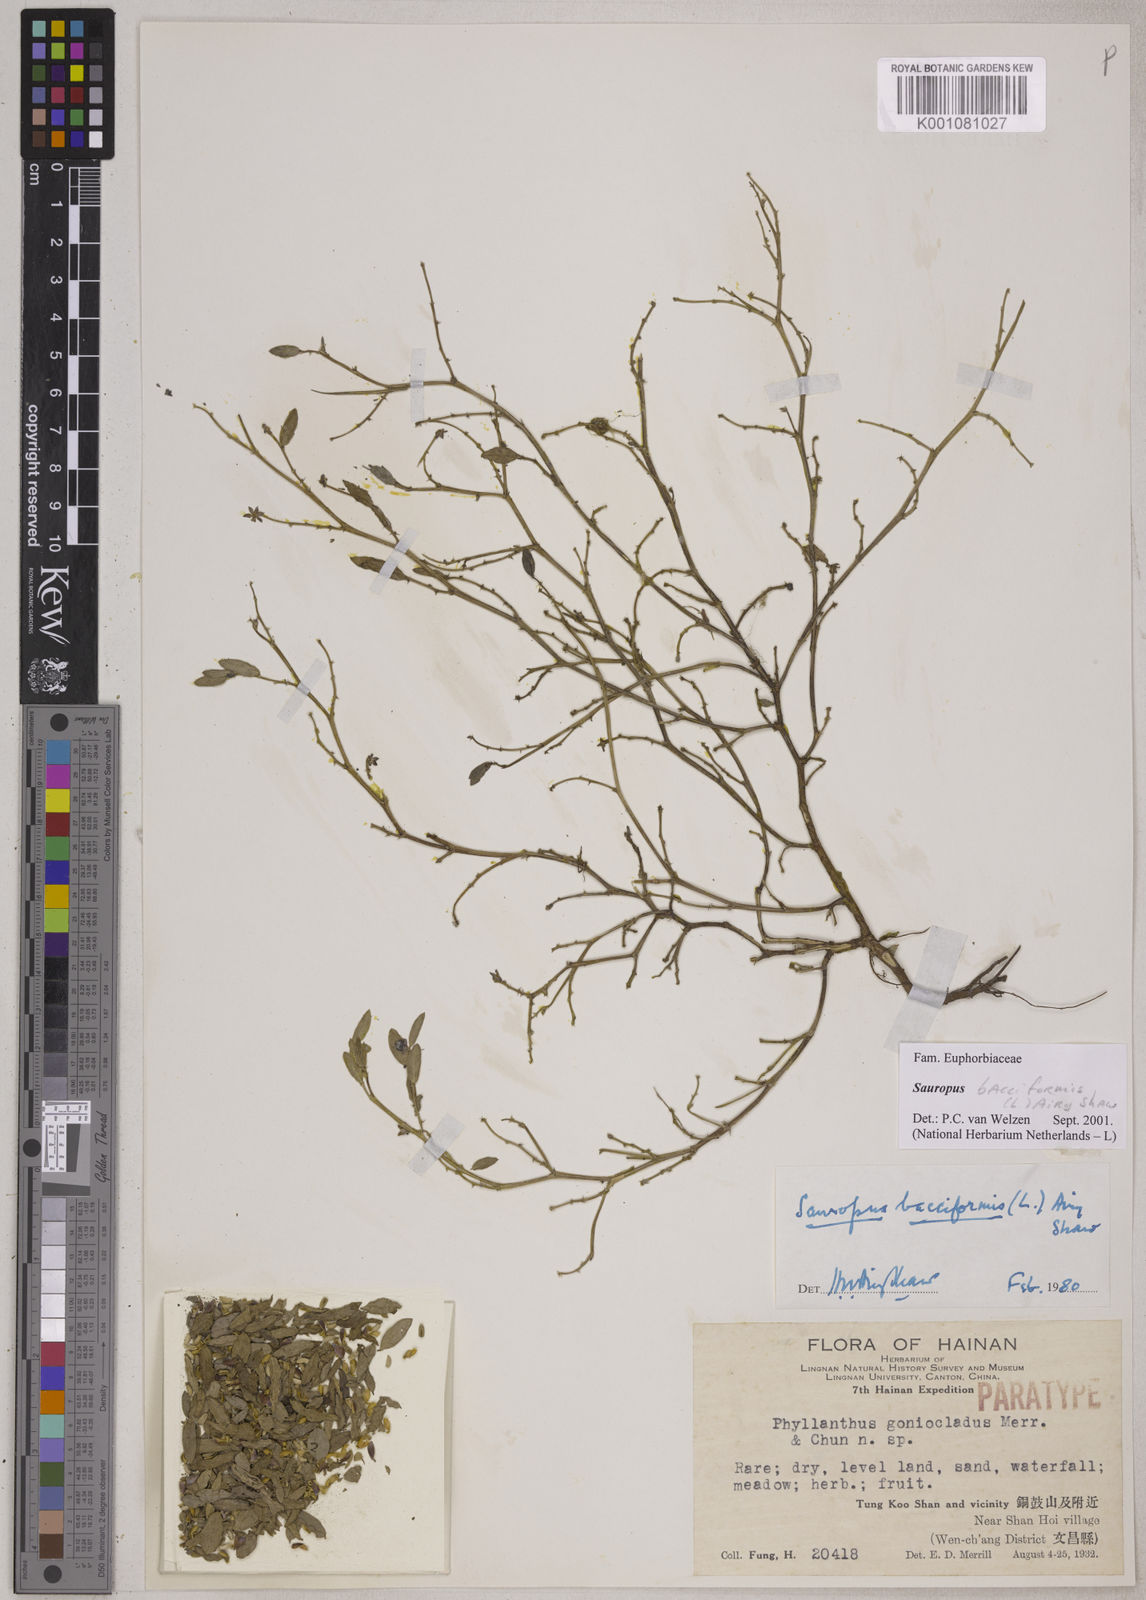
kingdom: Plantae
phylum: Tracheophyta
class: Magnoliopsida
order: Malpighiales
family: Phyllanthaceae
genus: Synostemon
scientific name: Synostemon bacciformis
